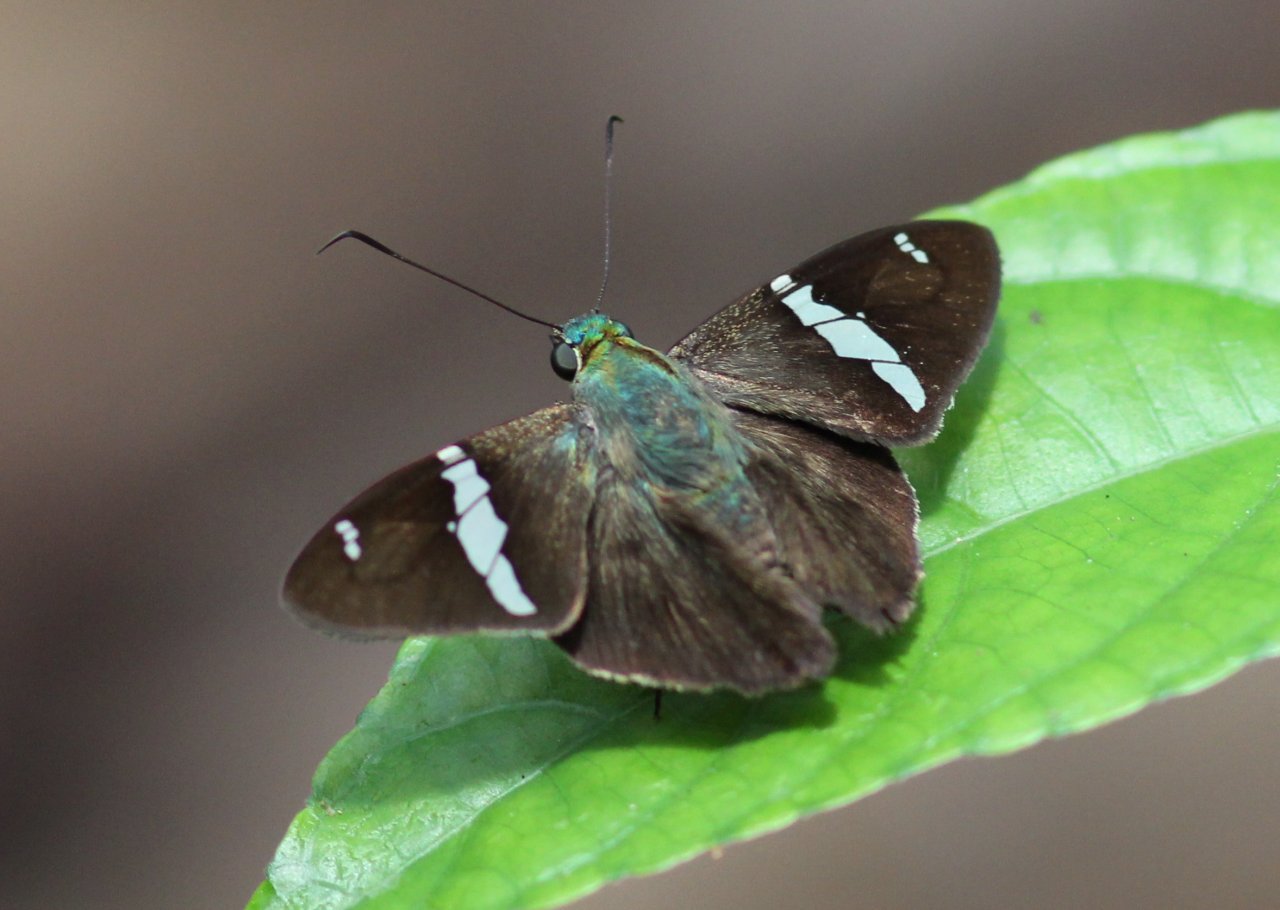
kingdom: Animalia
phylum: Arthropoda
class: Insecta
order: Lepidoptera
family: Hesperiidae
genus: Autochton
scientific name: Autochton neis
